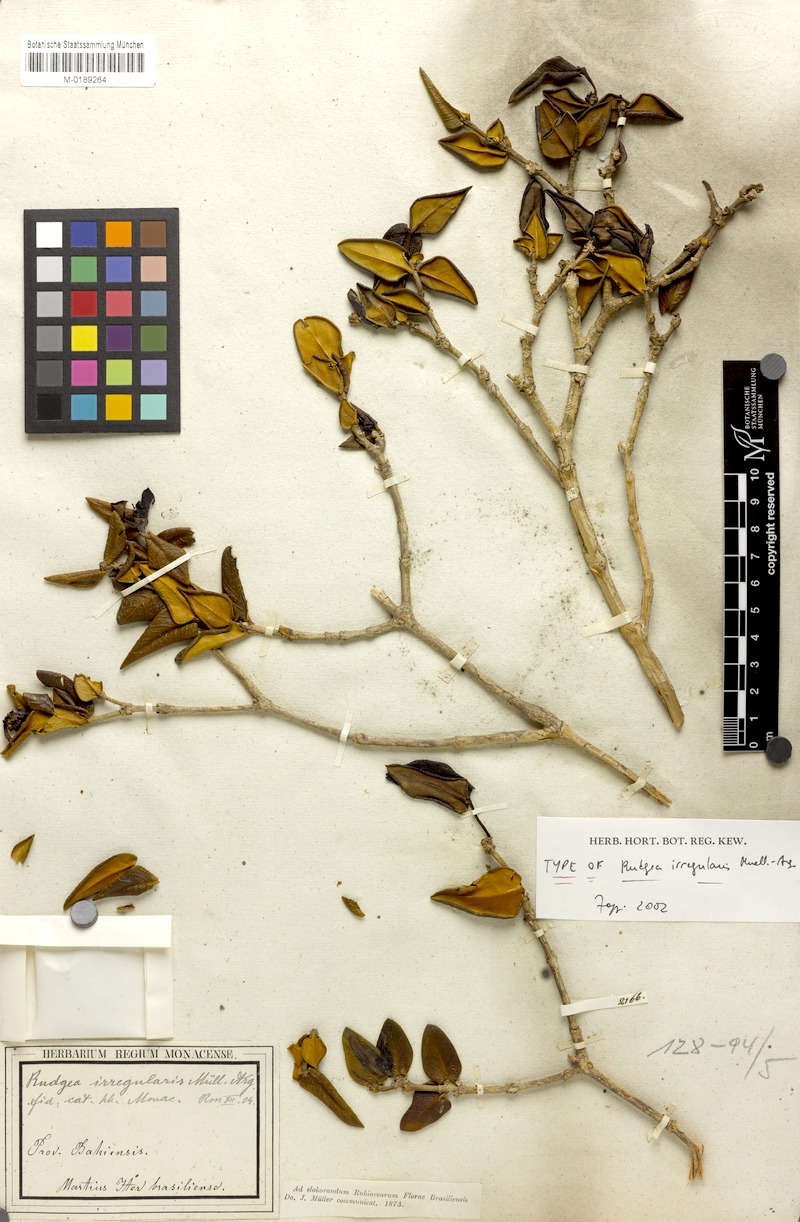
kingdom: Plantae
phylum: Tracheophyta
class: Magnoliopsida
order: Gentianales
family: Rubiaceae
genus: Rudgea
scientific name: Rudgea irregularis
